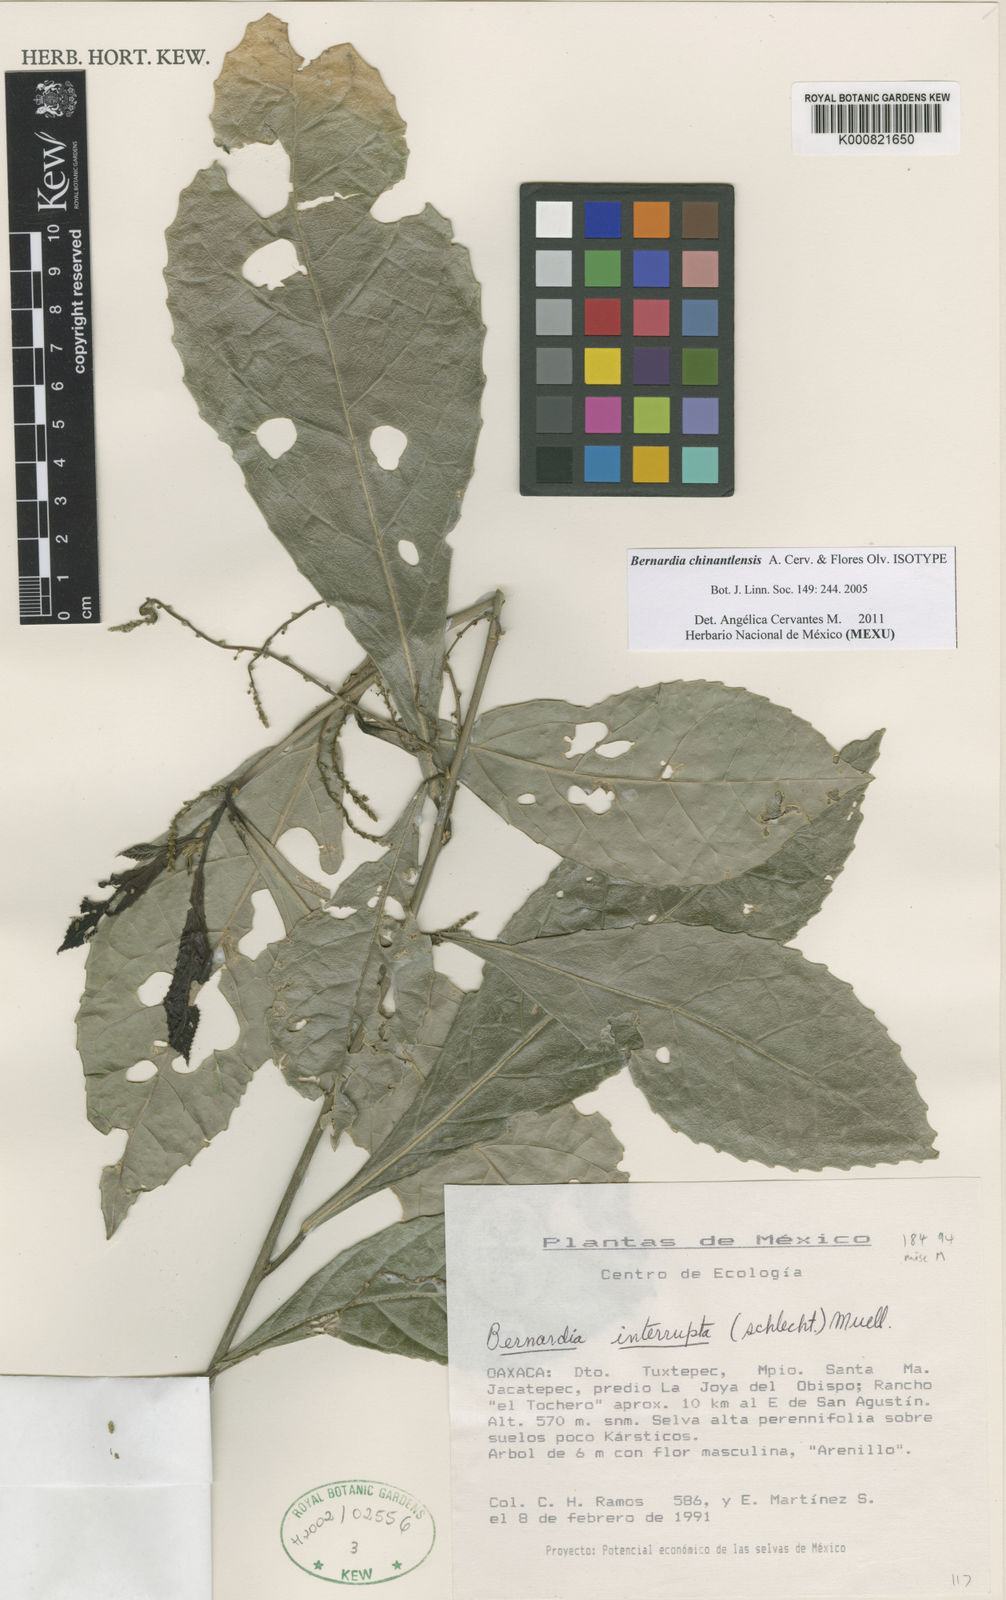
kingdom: Plantae
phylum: Tracheophyta
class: Magnoliopsida
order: Malpighiales
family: Euphorbiaceae
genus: Bernardia
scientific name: Bernardia chinantlensis
